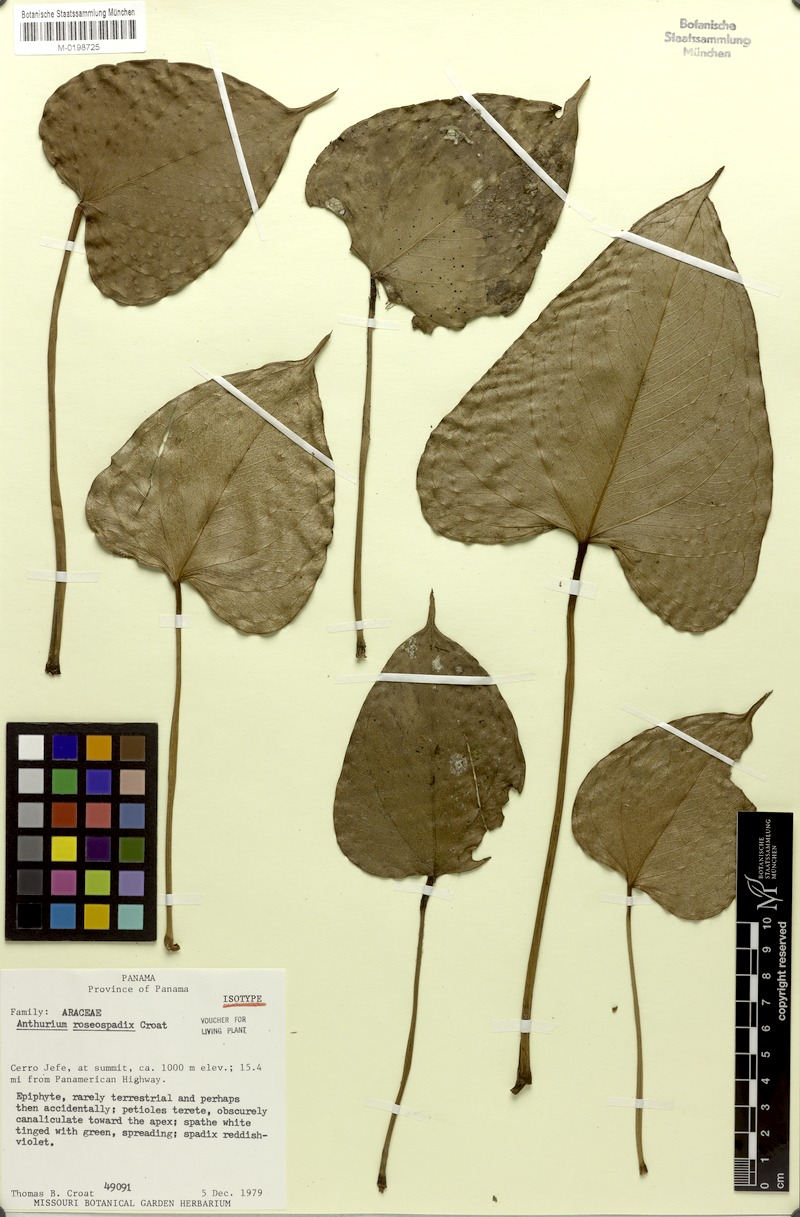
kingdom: Plantae
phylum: Tracheophyta
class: Liliopsida
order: Alismatales
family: Araceae
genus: Anthurium
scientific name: Anthurium roseospadix
